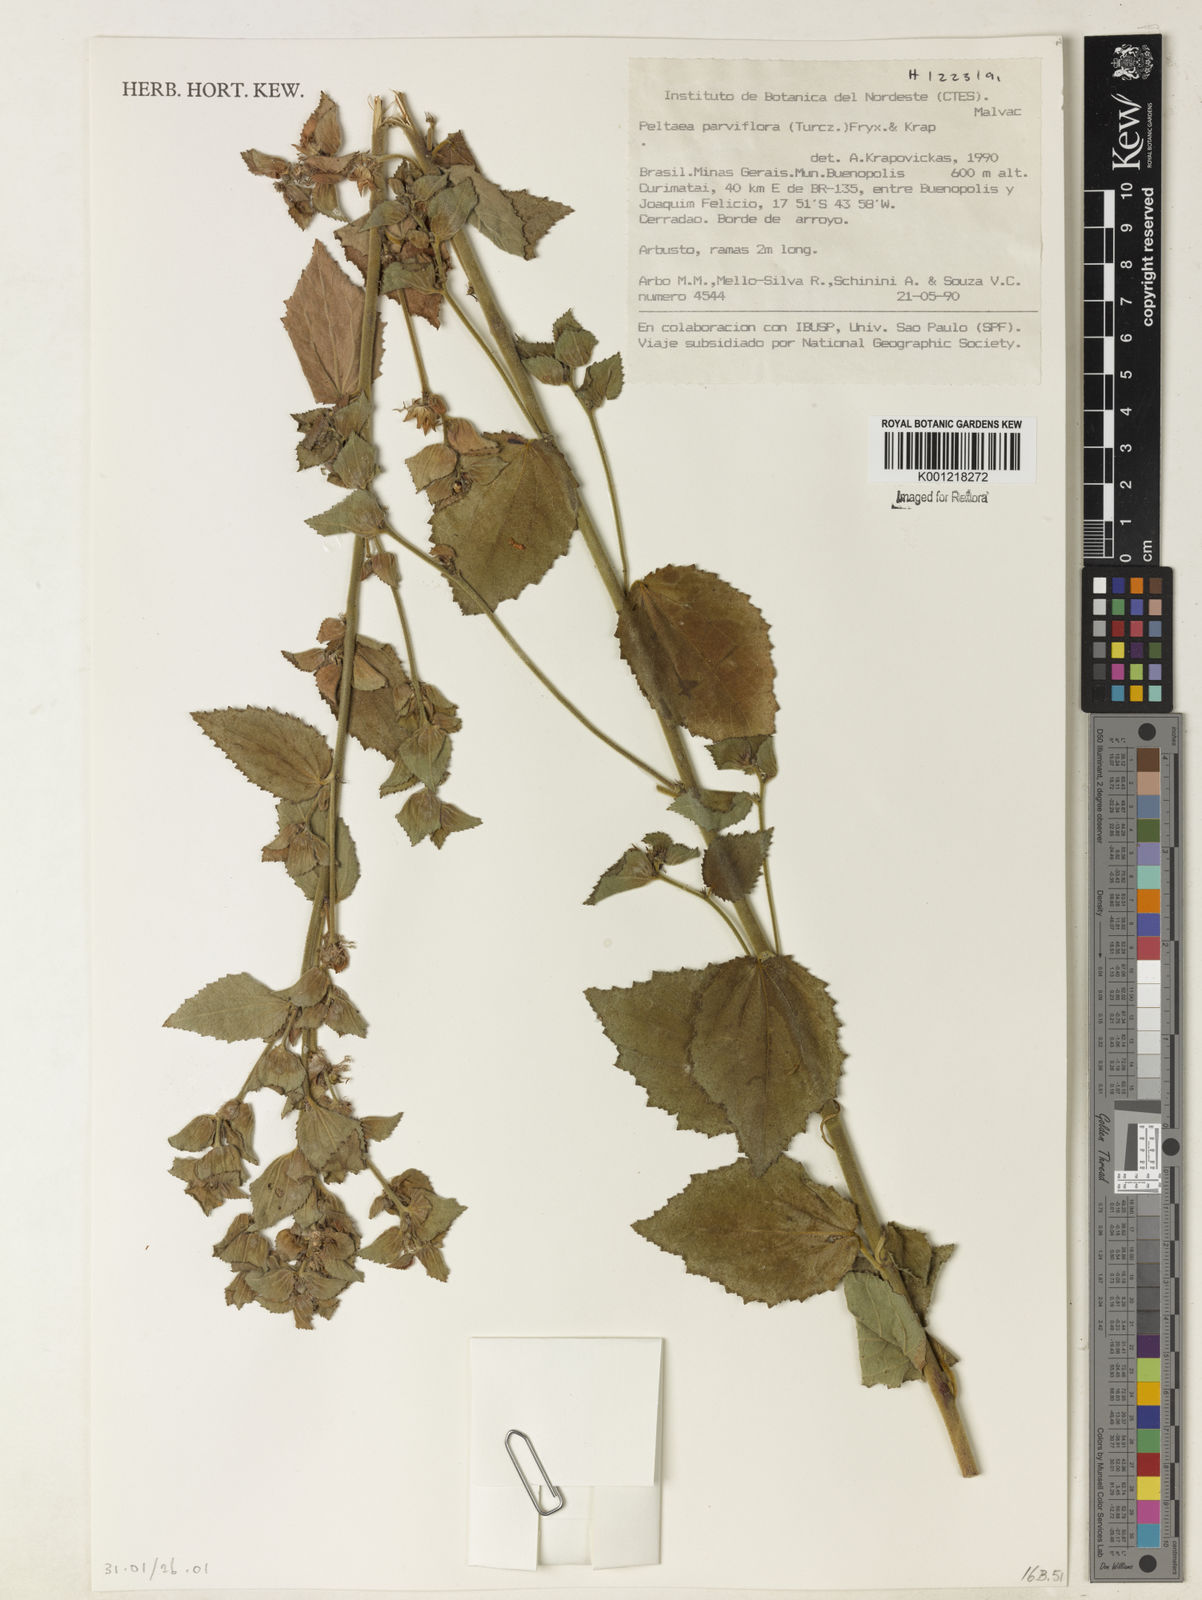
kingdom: Plantae
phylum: Tracheophyta
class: Magnoliopsida
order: Malvales
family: Malvaceae
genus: Peltaea
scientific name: Peltaea parviflora
